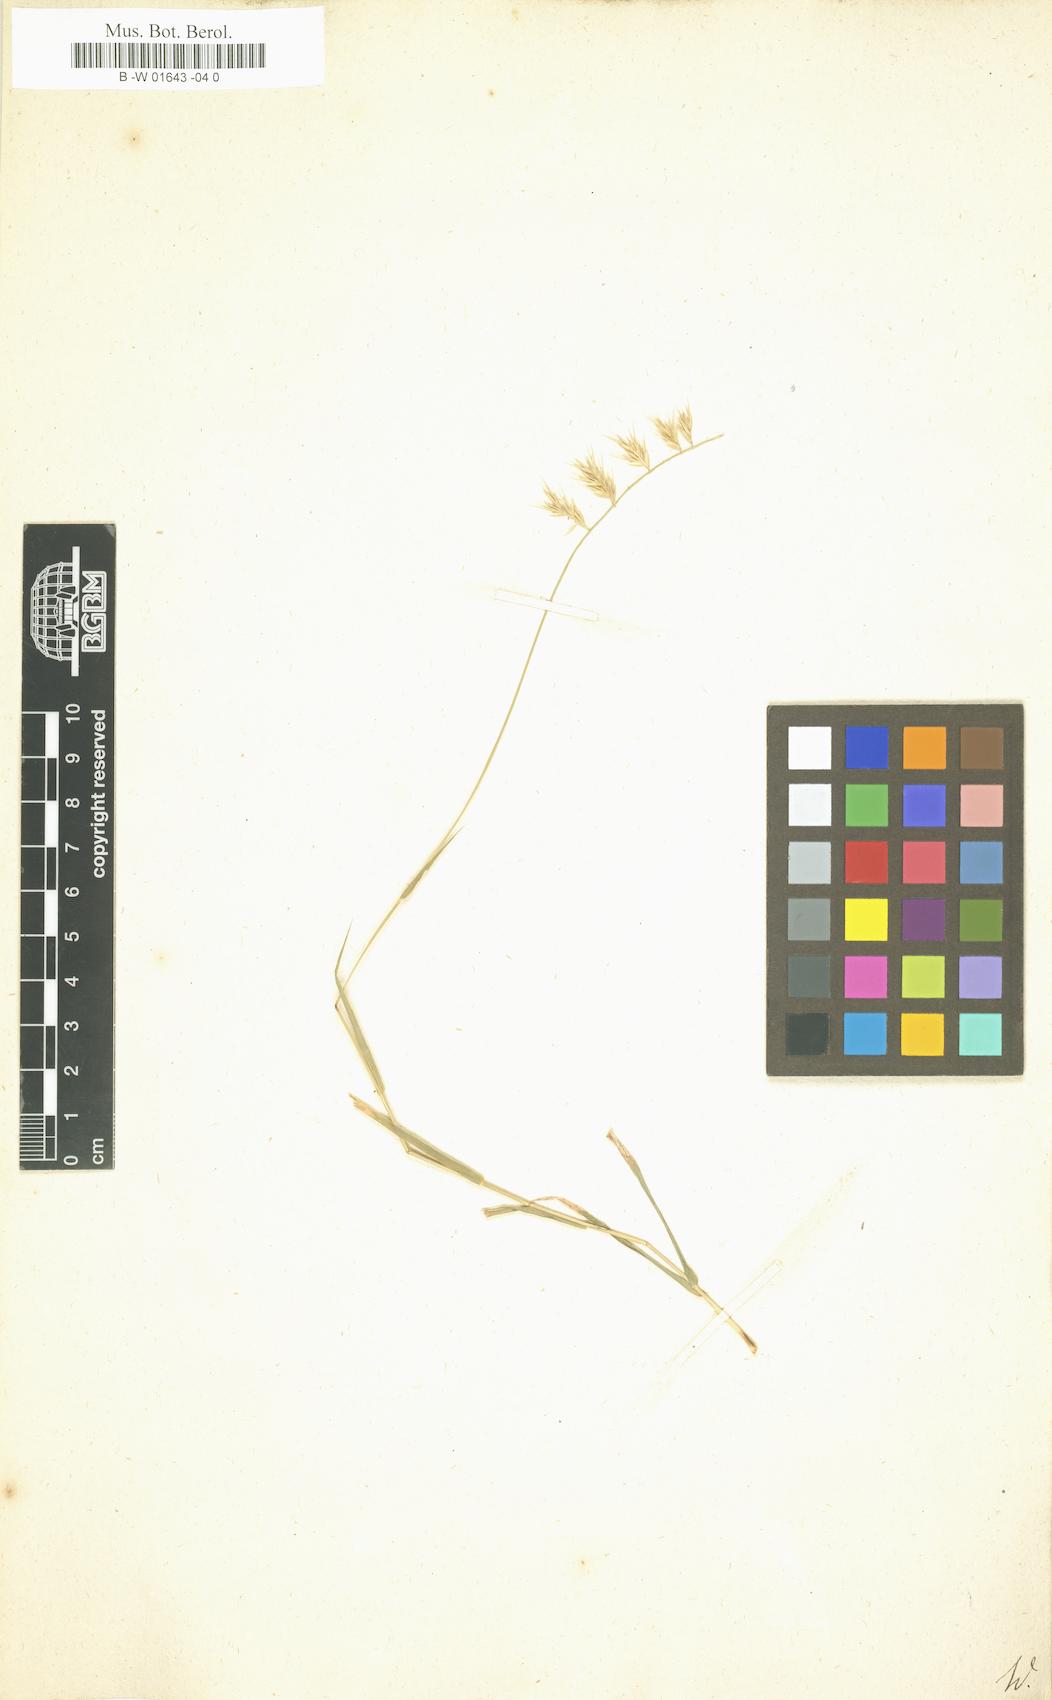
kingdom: Plantae
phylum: Tracheophyta
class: Liliopsida
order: Poales
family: Poaceae
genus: Heterostega
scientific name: Heterostega
